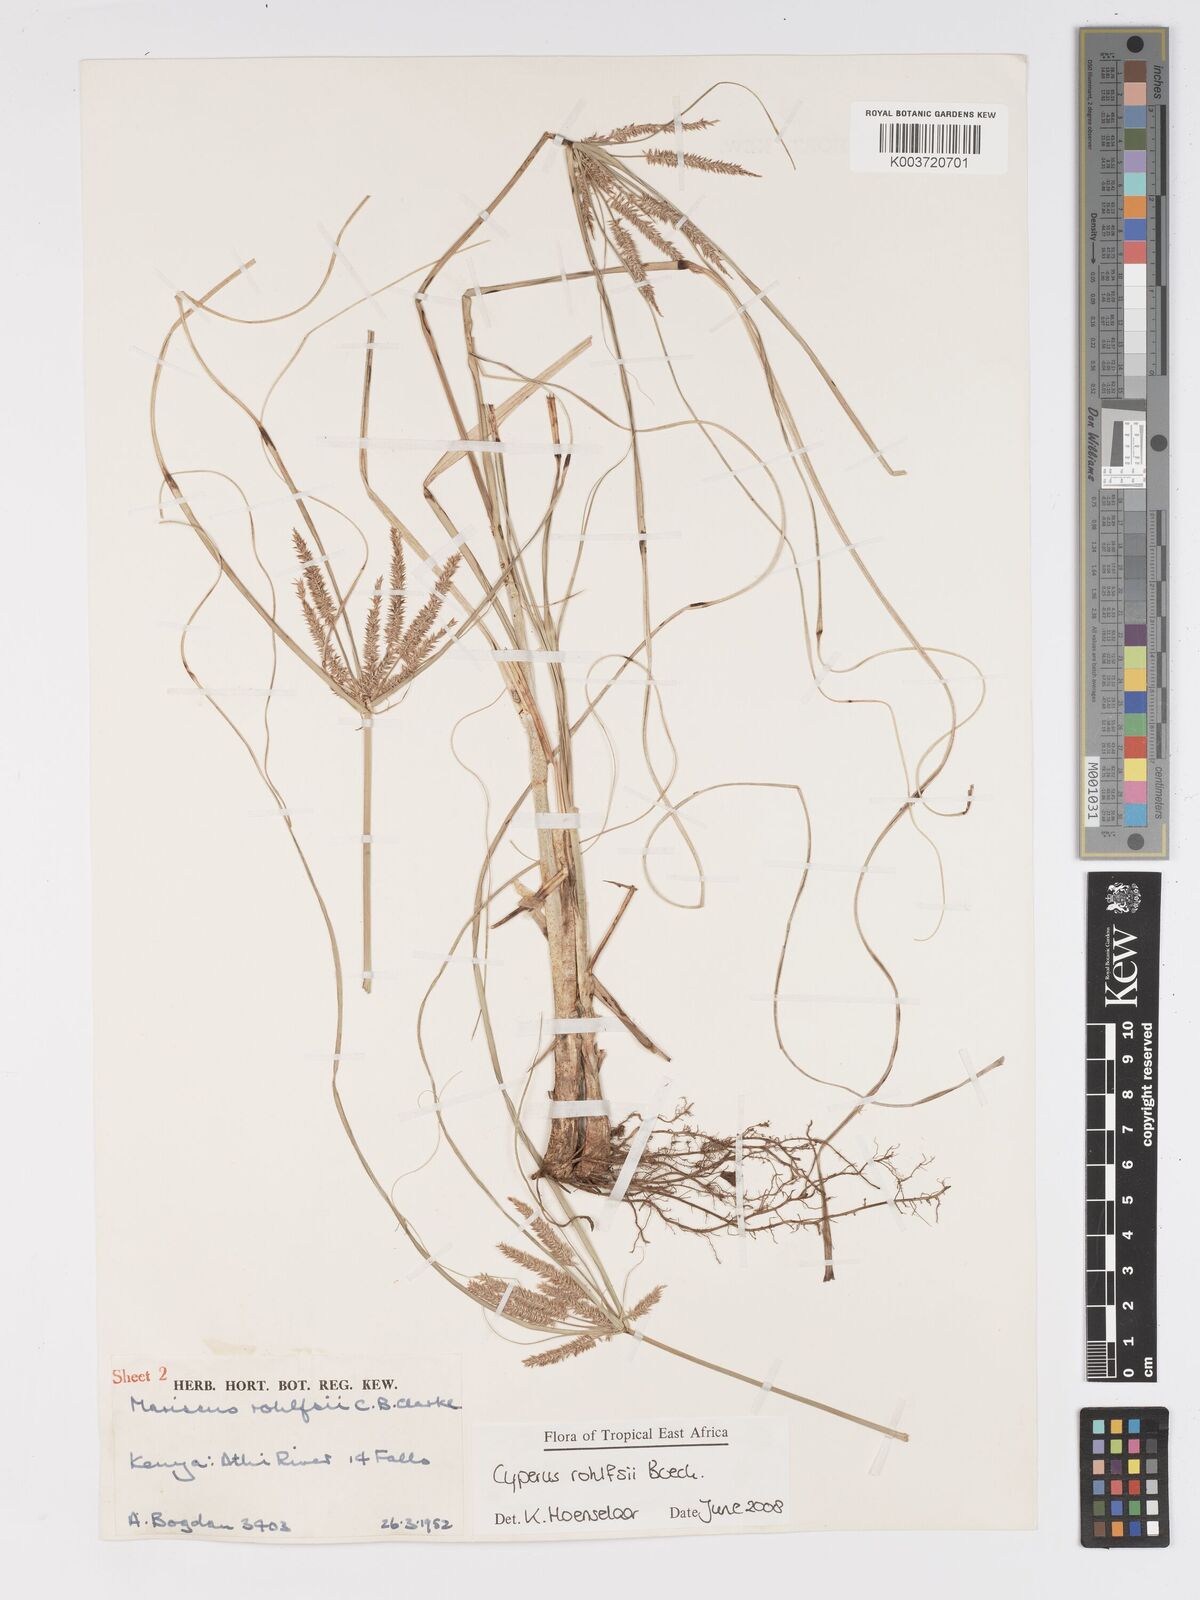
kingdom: Plantae
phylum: Tracheophyta
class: Liliopsida
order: Poales
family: Cyperaceae
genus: Cyperus
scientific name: Cyperus rohlfsii
